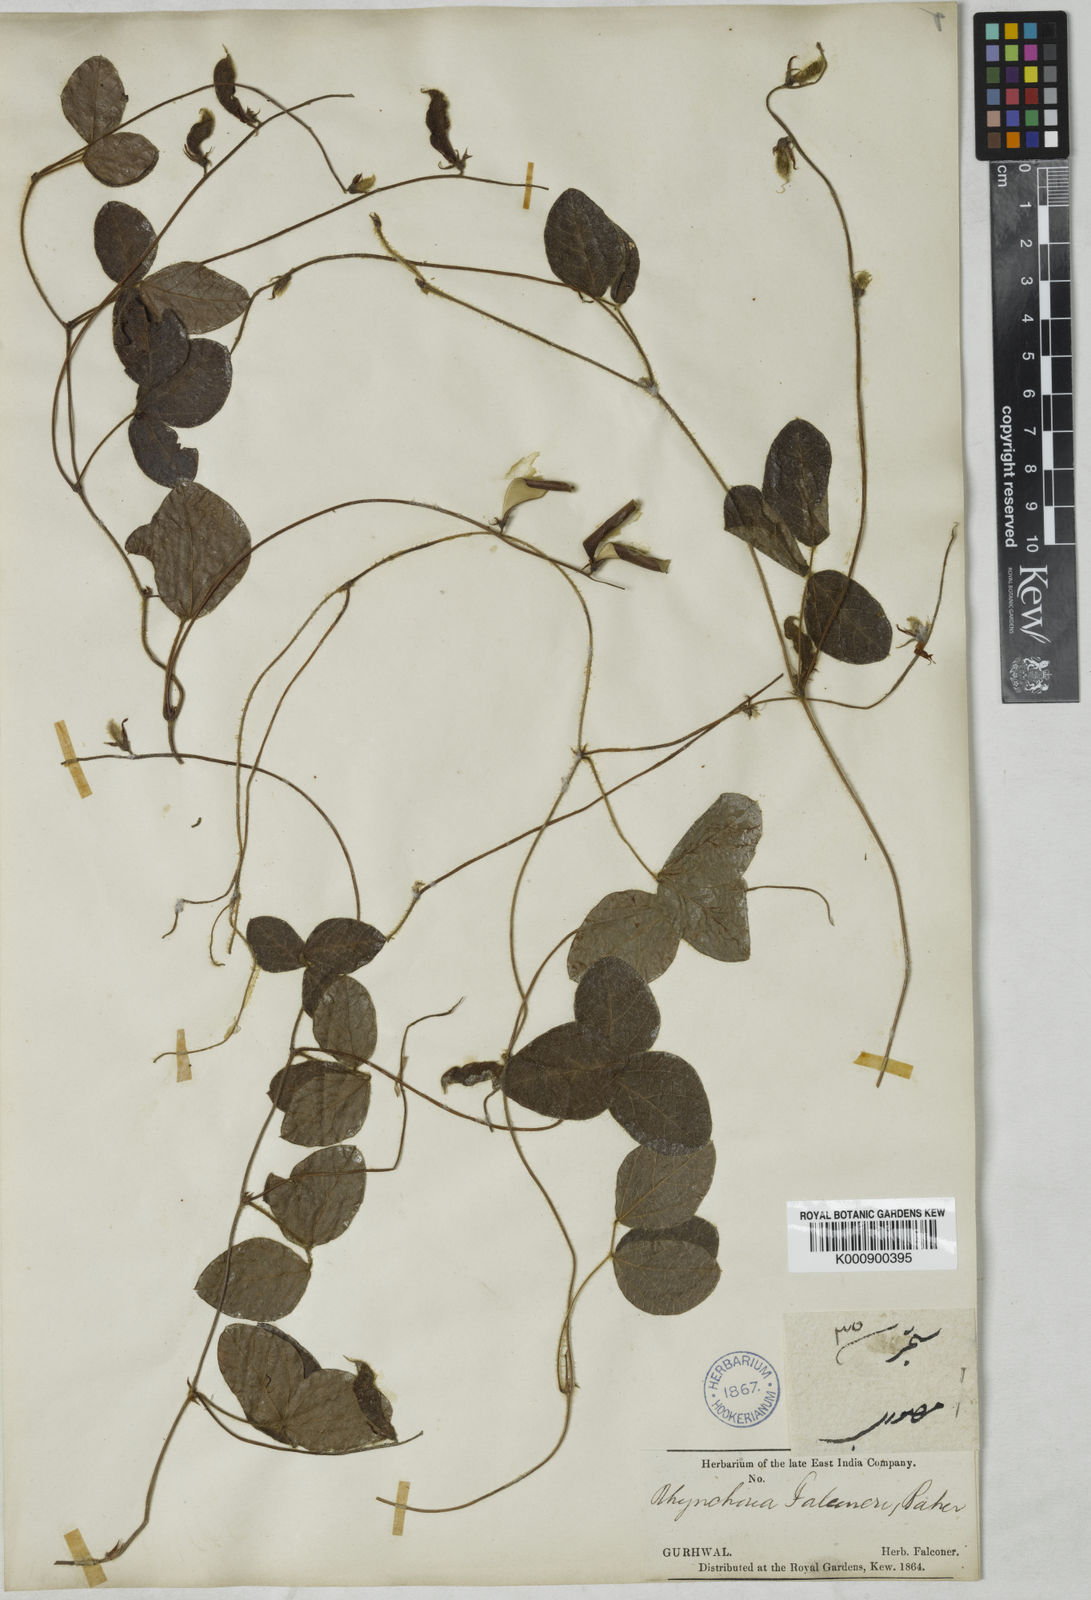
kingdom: Plantae
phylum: Tracheophyta
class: Magnoliopsida
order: Fabales
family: Fabaceae
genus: Rhynchosia
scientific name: Rhynchosia falconeri
